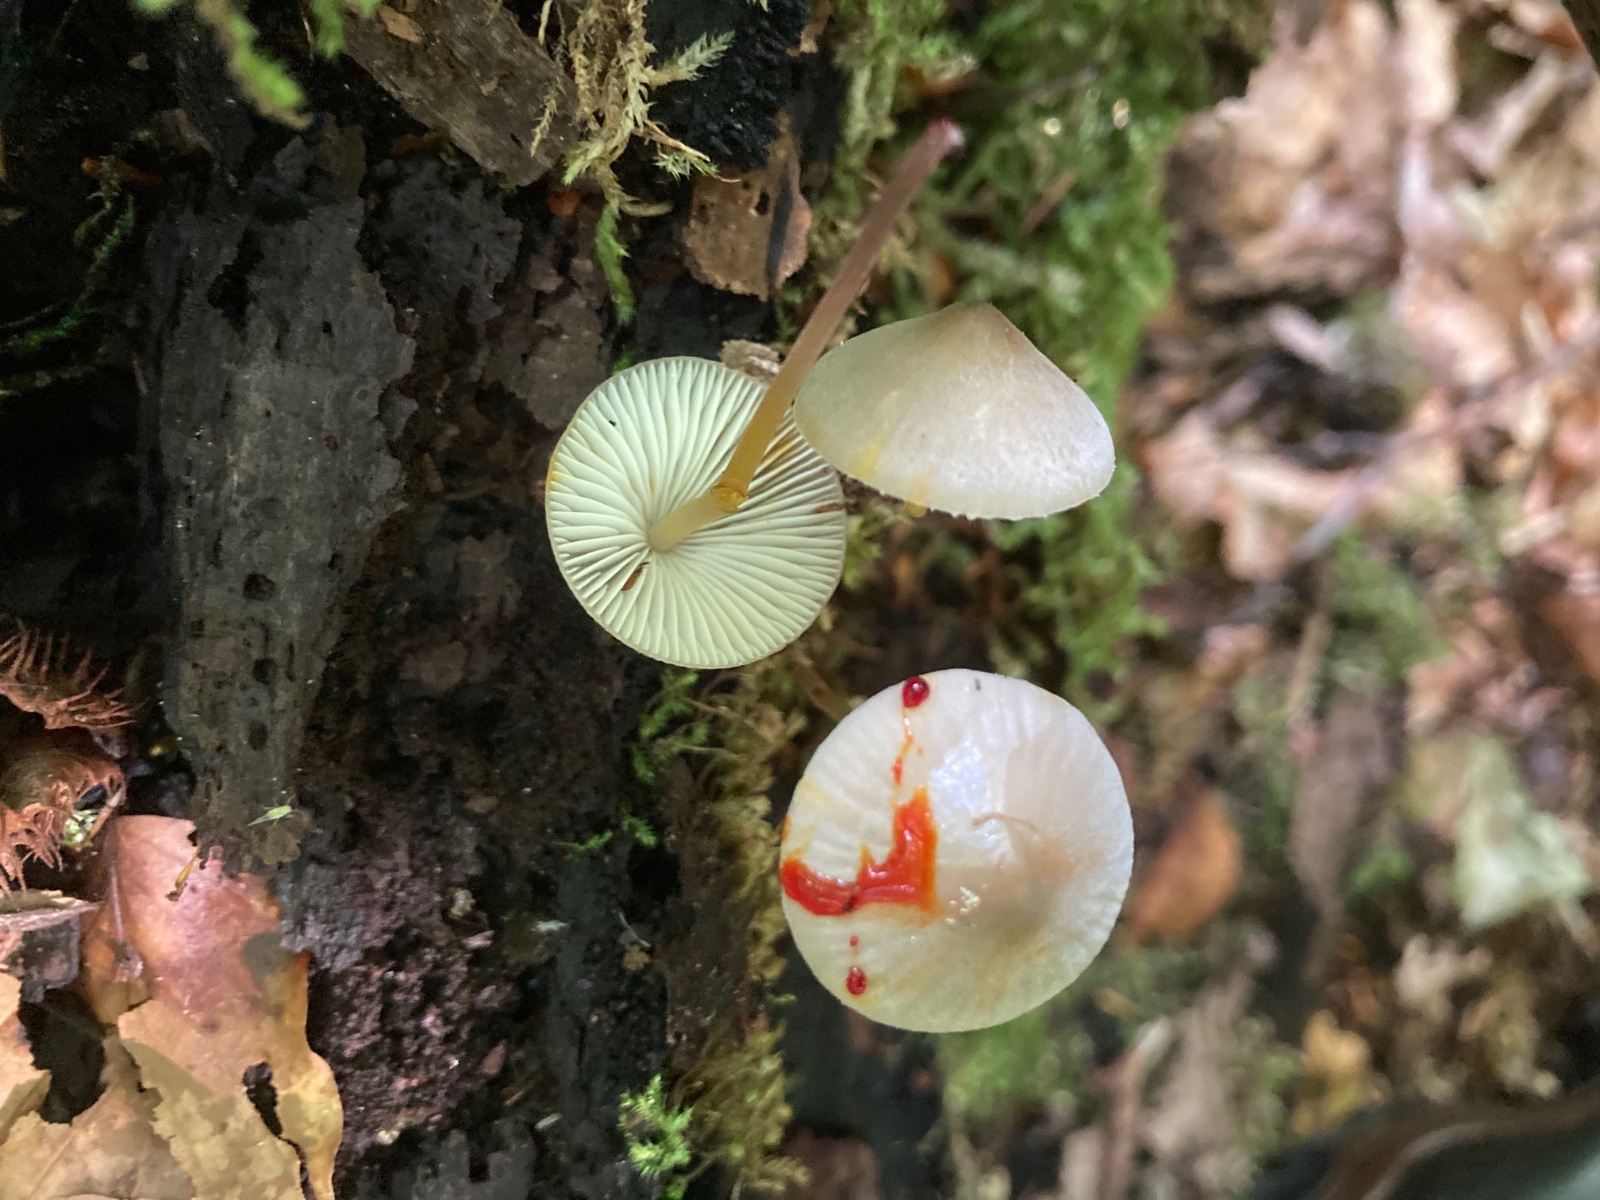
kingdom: Fungi
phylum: Basidiomycota
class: Agaricomycetes
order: Agaricales
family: Mycenaceae
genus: Mycena
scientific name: Mycena crocata
